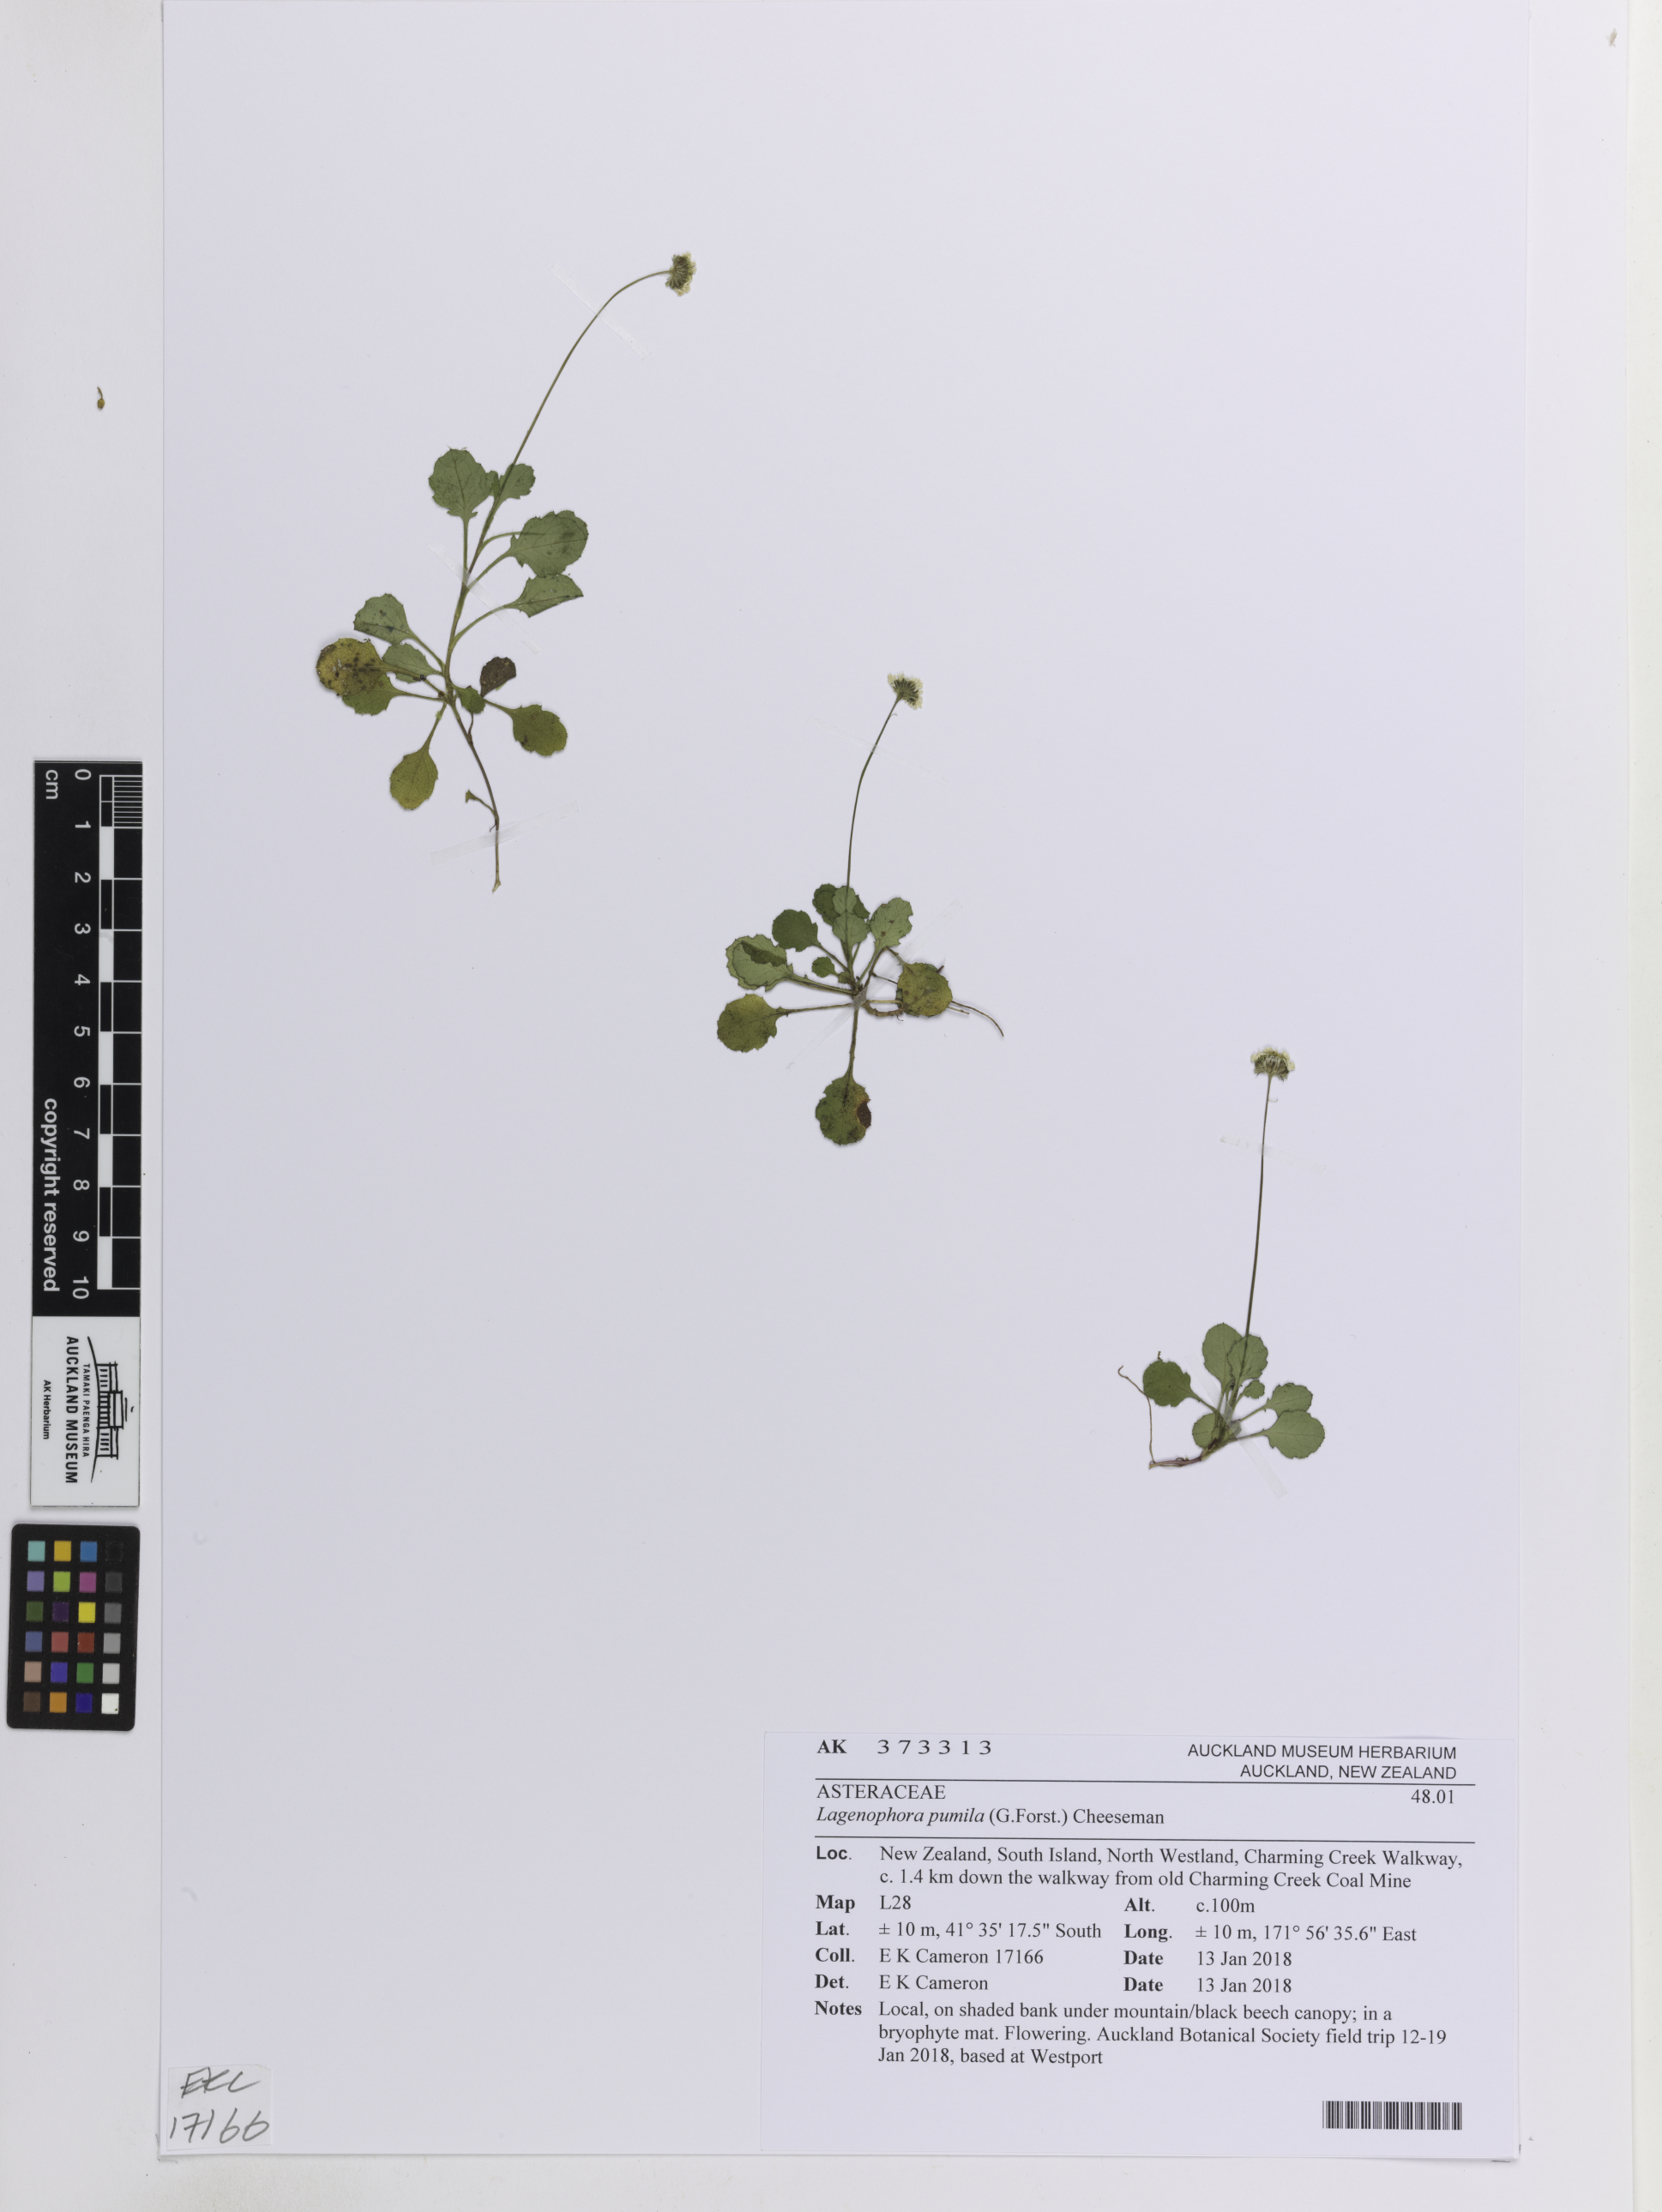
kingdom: Plantae
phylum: Tracheophyta
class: Magnoliopsida
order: Asterales
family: Asteraceae
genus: Lagenophora
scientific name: Lagenophora pumila
